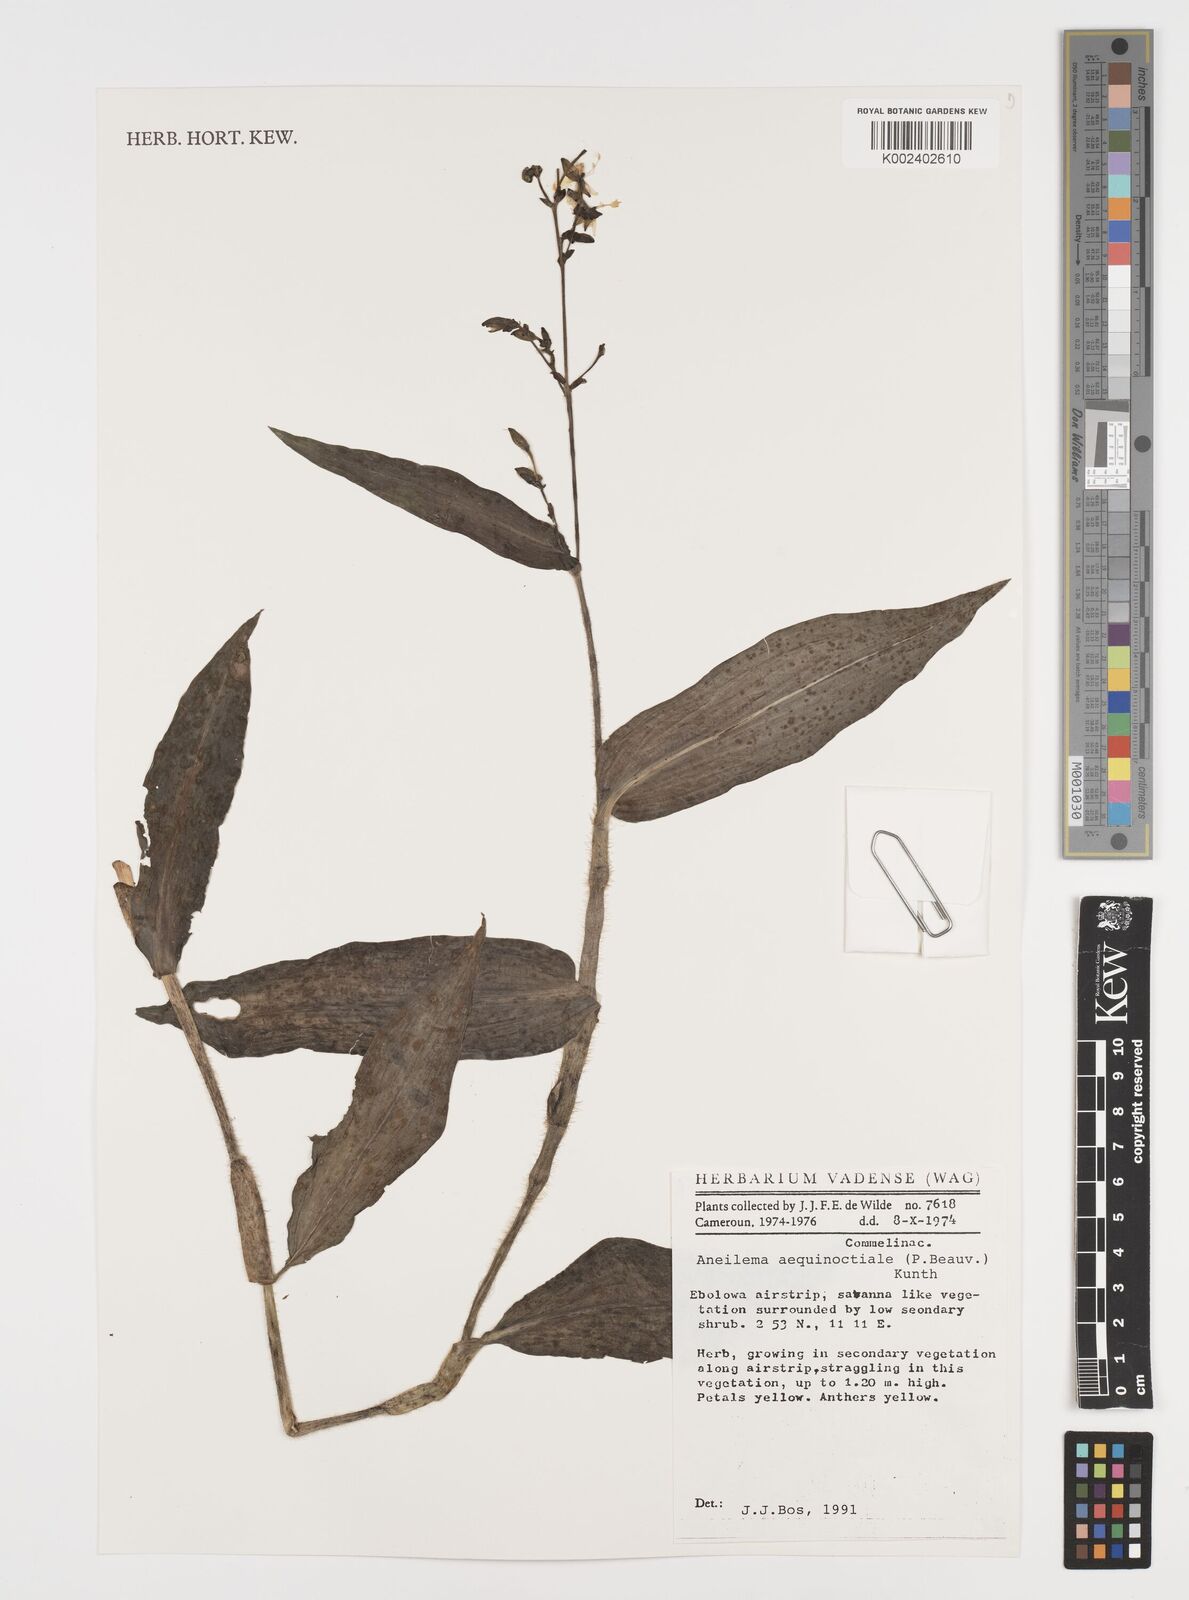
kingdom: Plantae
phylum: Tracheophyta
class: Liliopsida
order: Commelinales
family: Commelinaceae
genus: Aneilema
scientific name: Aneilema aequinoctiale
